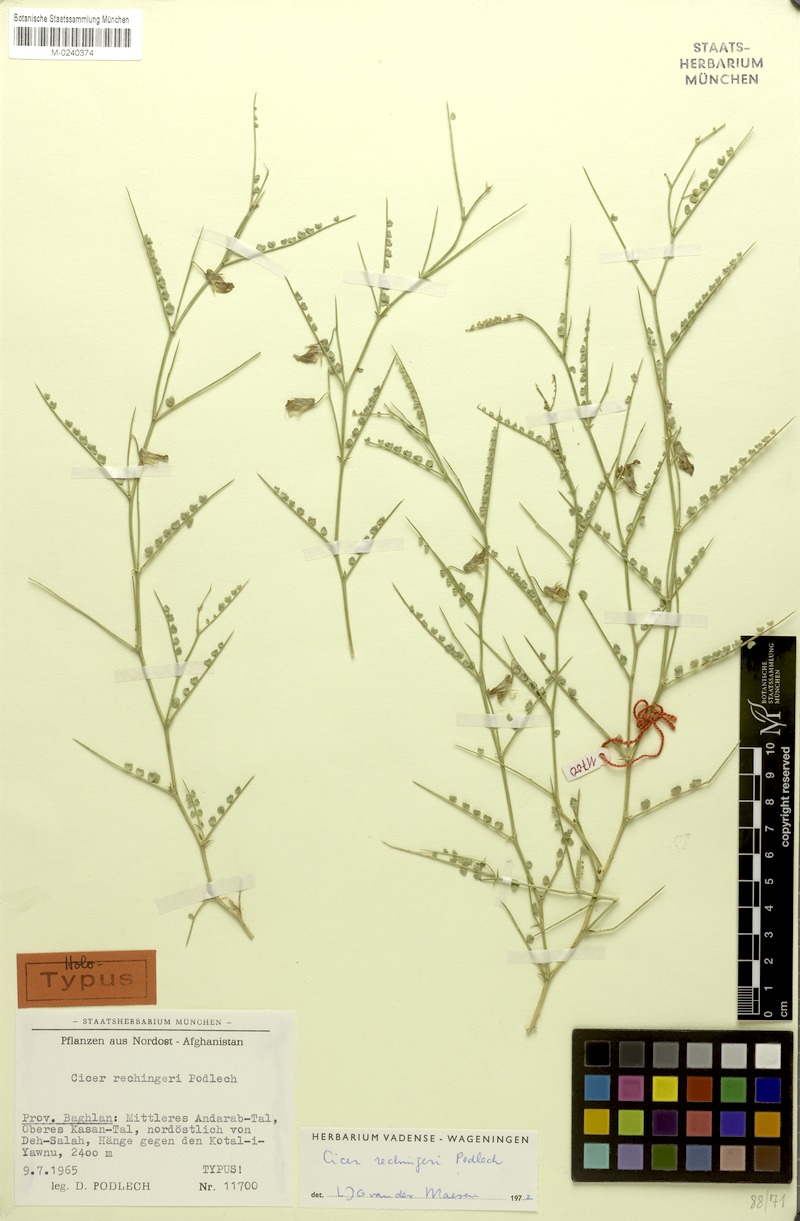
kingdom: Plantae
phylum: Tracheophyta
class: Magnoliopsida
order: Fabales
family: Fabaceae
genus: Cicer
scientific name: Cicer rechingeri
